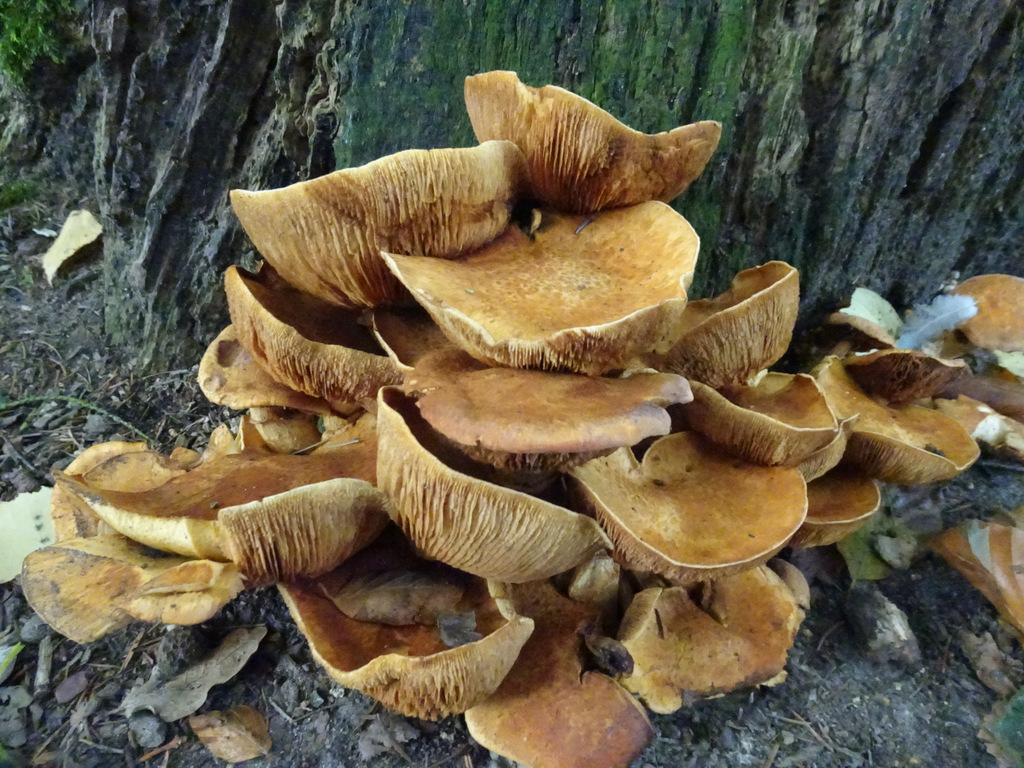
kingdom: Fungi
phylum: Basidiomycota
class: Agaricomycetes
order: Agaricales
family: Hymenogastraceae
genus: Gymnopilus
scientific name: Gymnopilus spectabilis
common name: fibret flammehat
